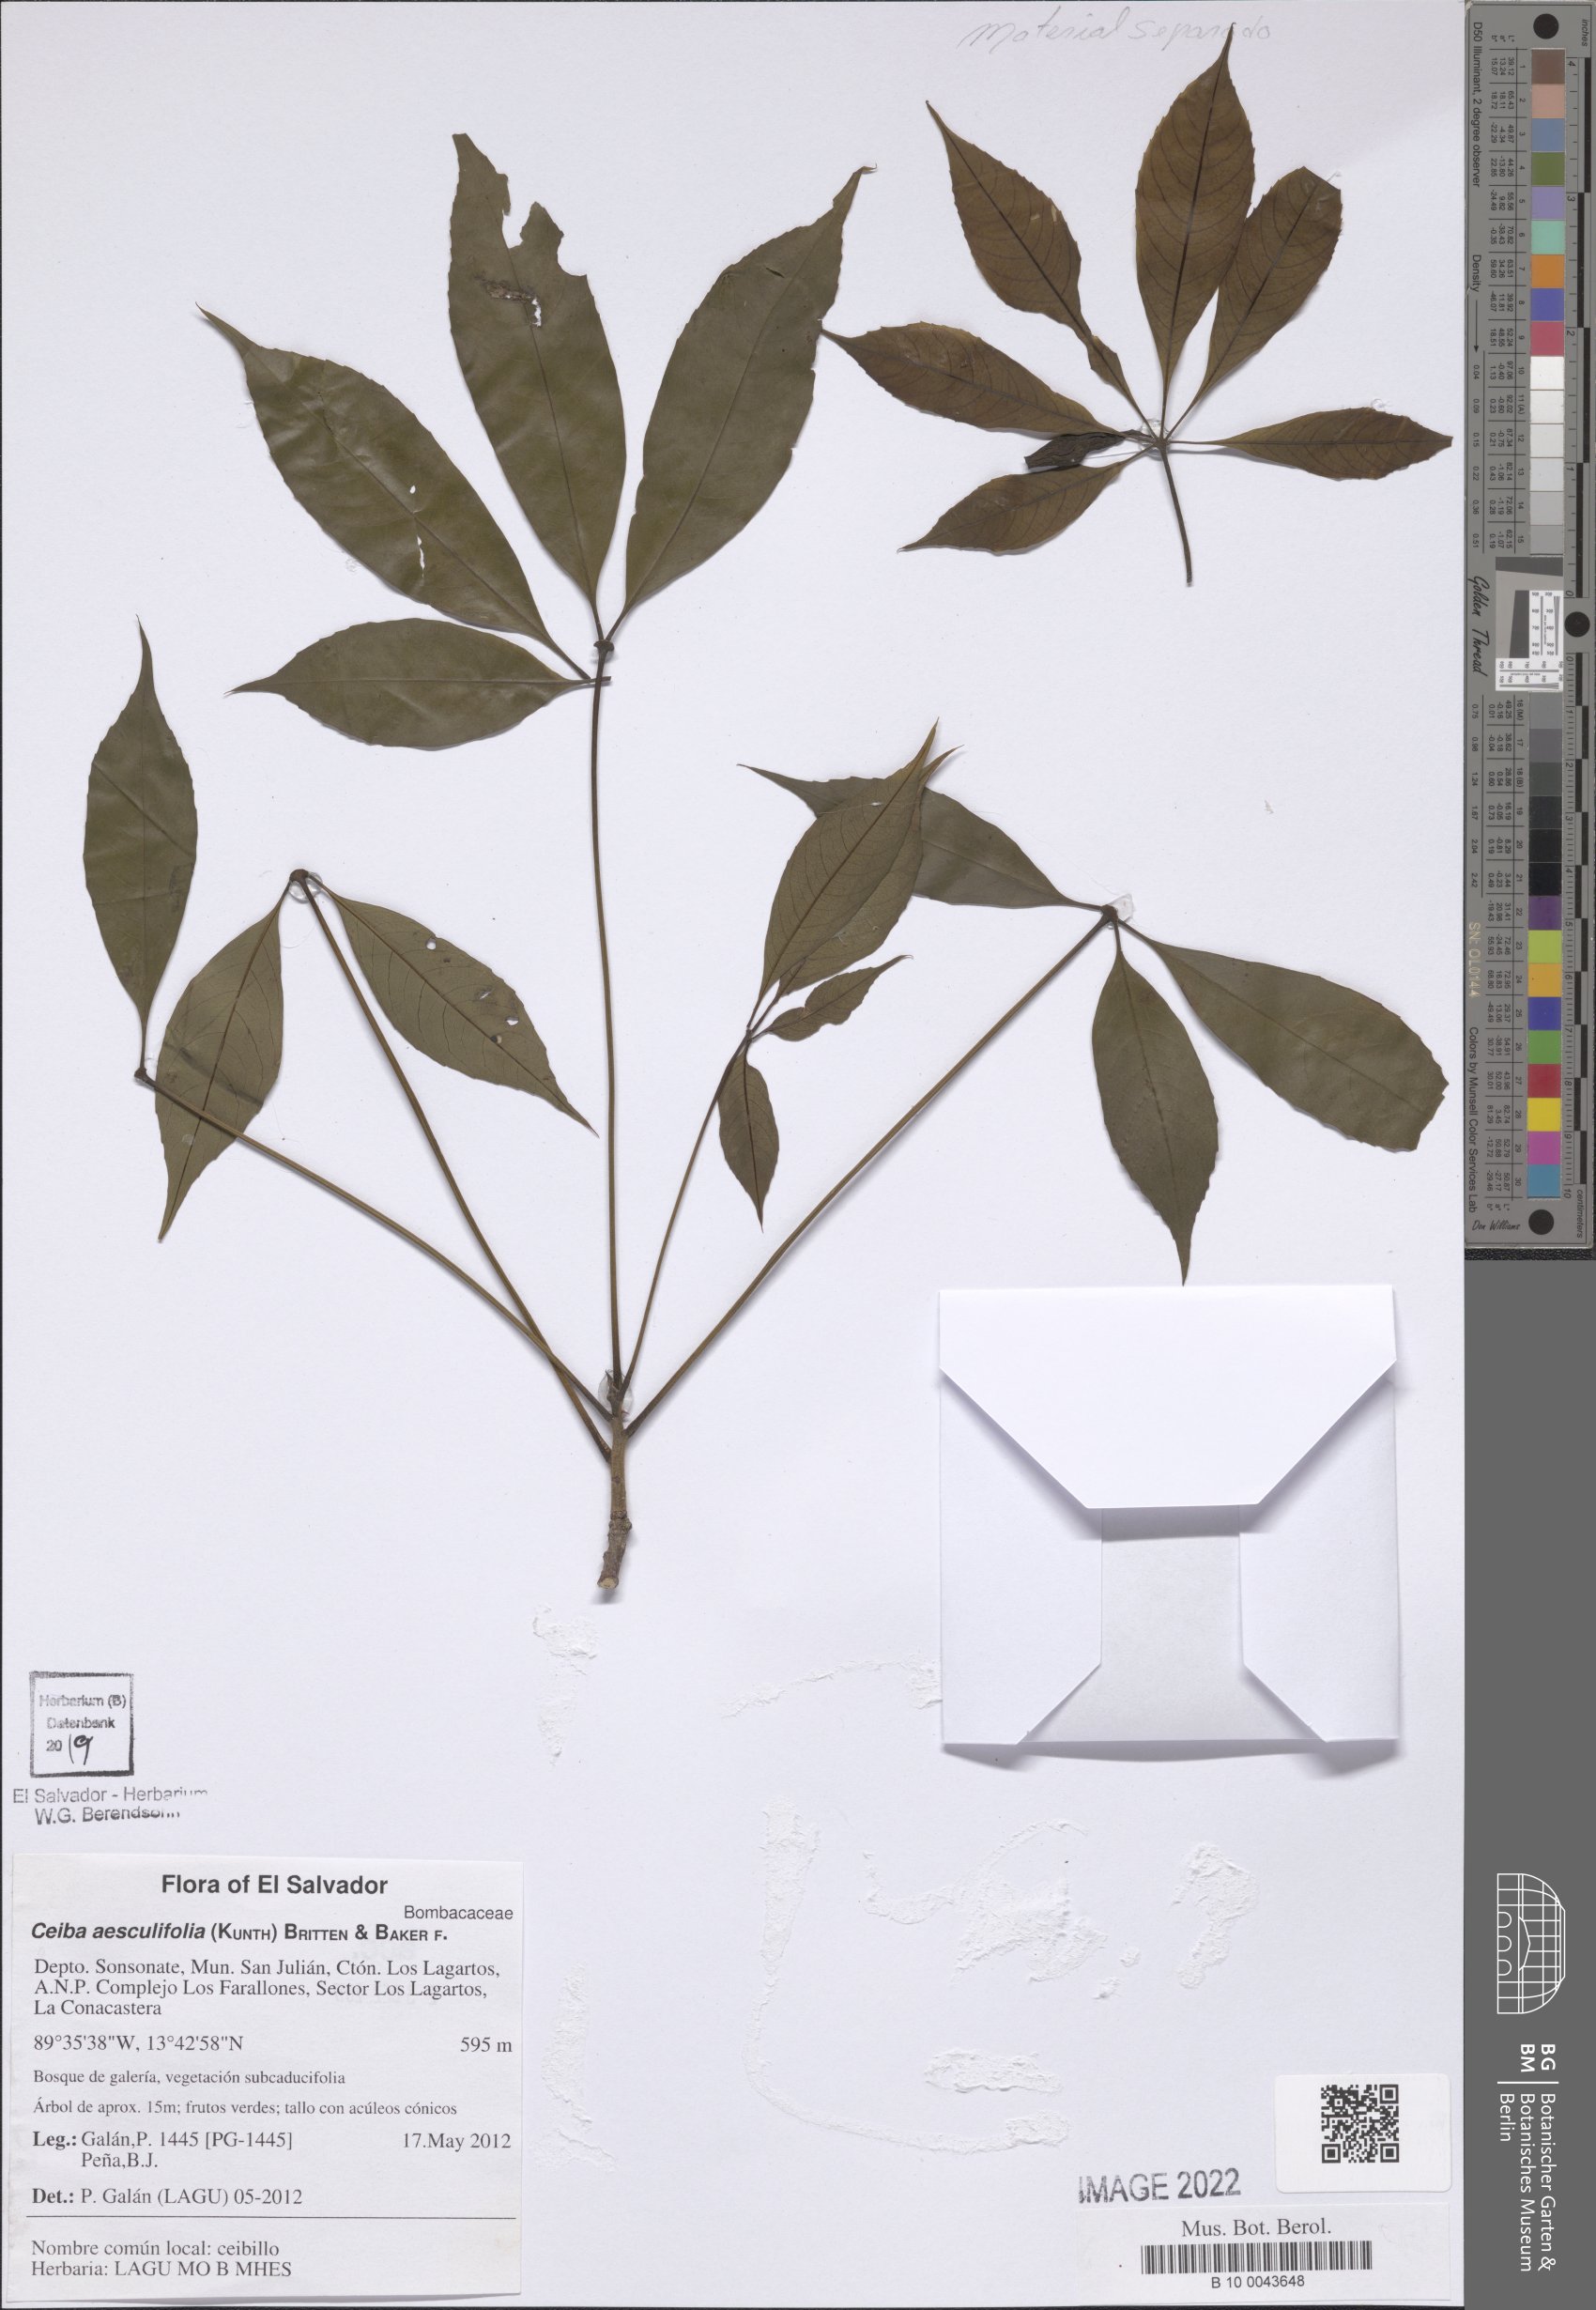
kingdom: Plantae
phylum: Tracheophyta
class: Magnoliopsida
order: Malvales
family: Malvaceae
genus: Ceiba
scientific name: Ceiba aesculifolia
